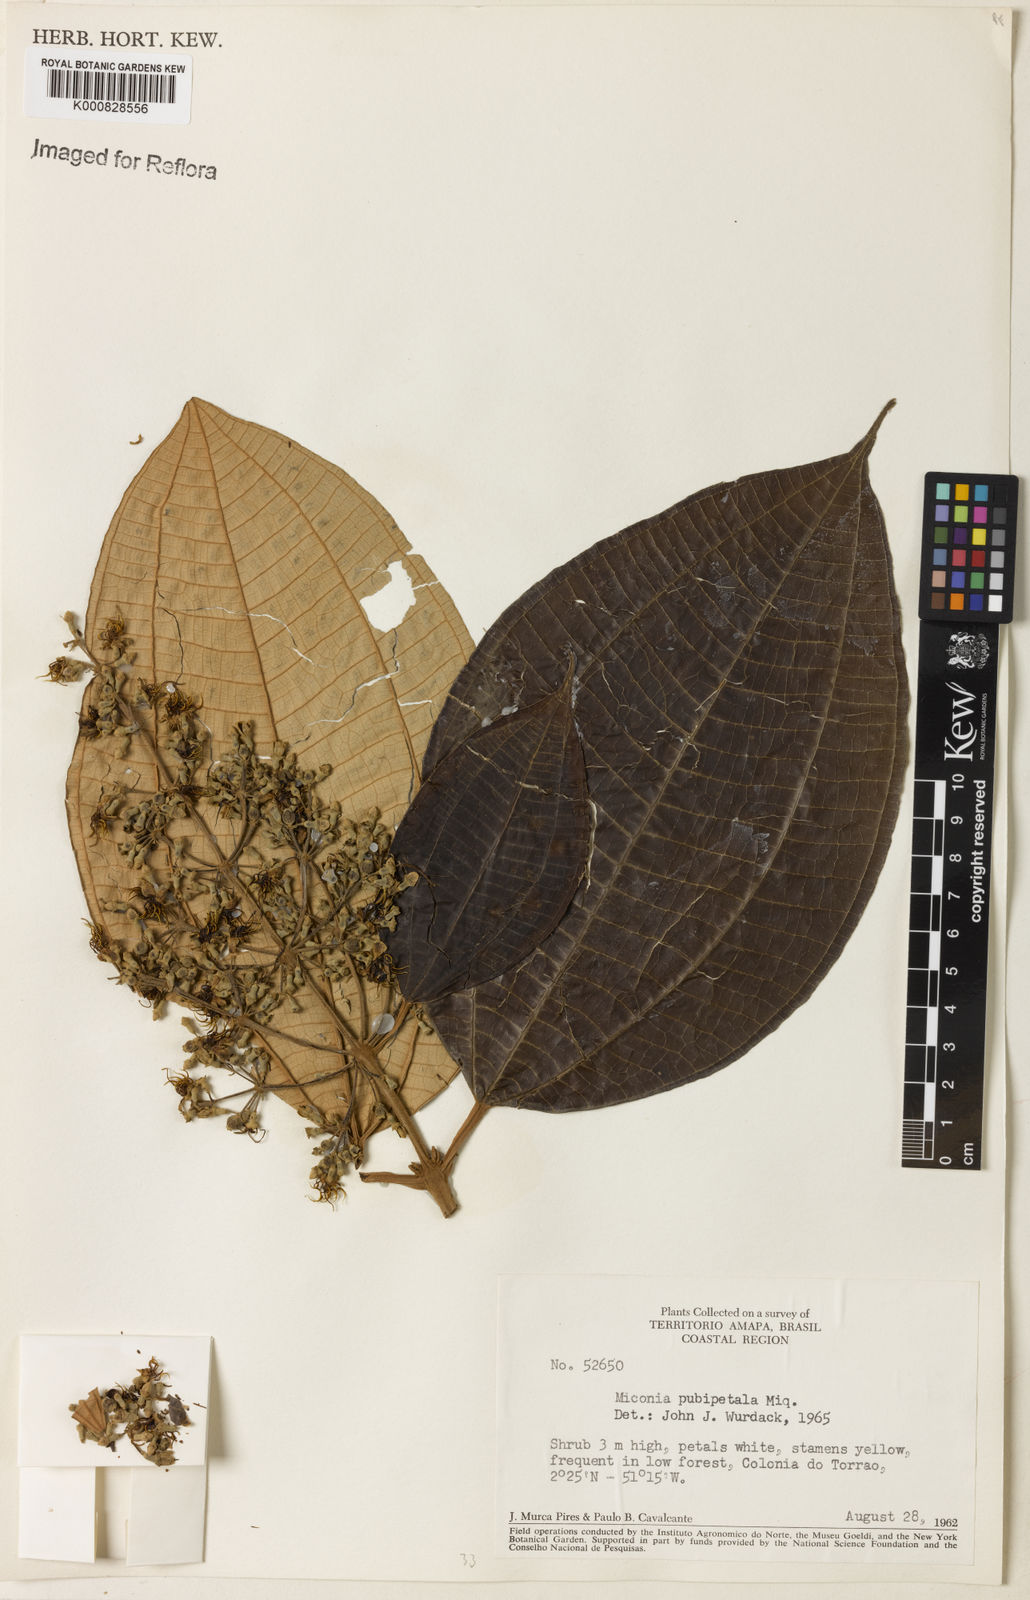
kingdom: Plantae
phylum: Tracheophyta
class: Magnoliopsida
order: Myrtales
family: Melastomataceae
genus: Miconia
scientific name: Miconia pubipetala
